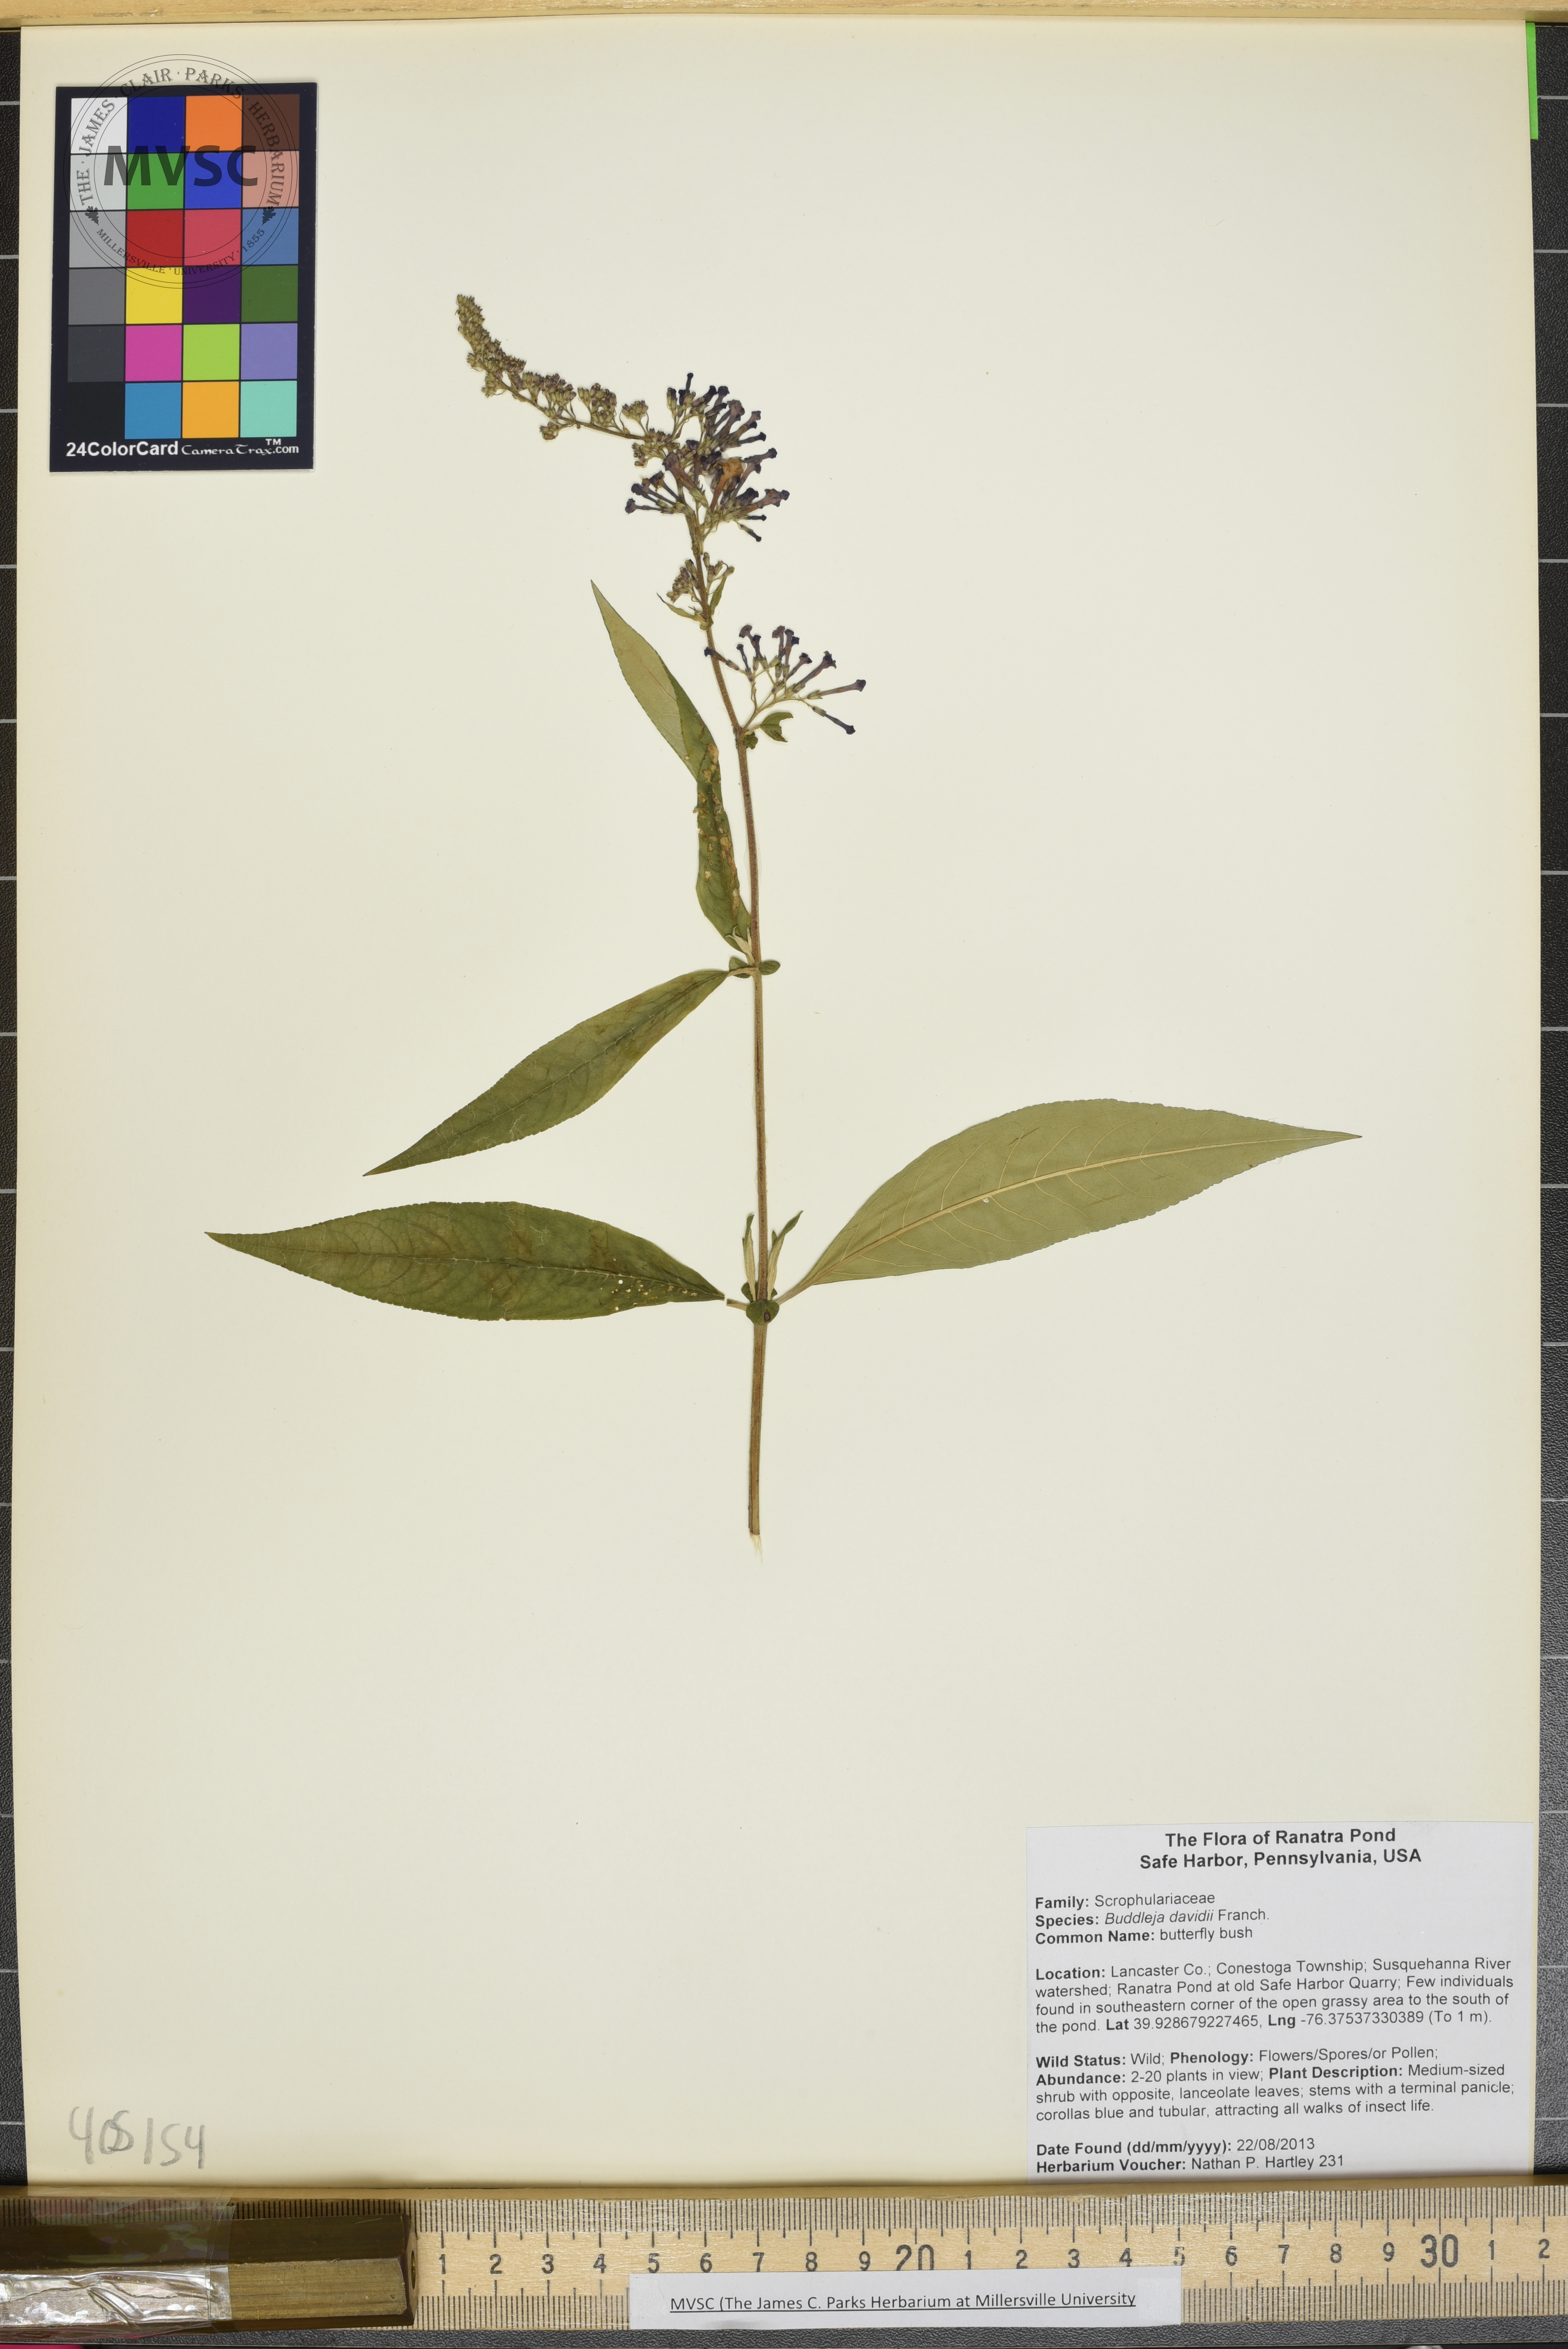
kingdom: Plantae
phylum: Tracheophyta
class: Magnoliopsida
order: Lamiales
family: Scrophulariaceae
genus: Buddleja
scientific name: Buddleja davidii
